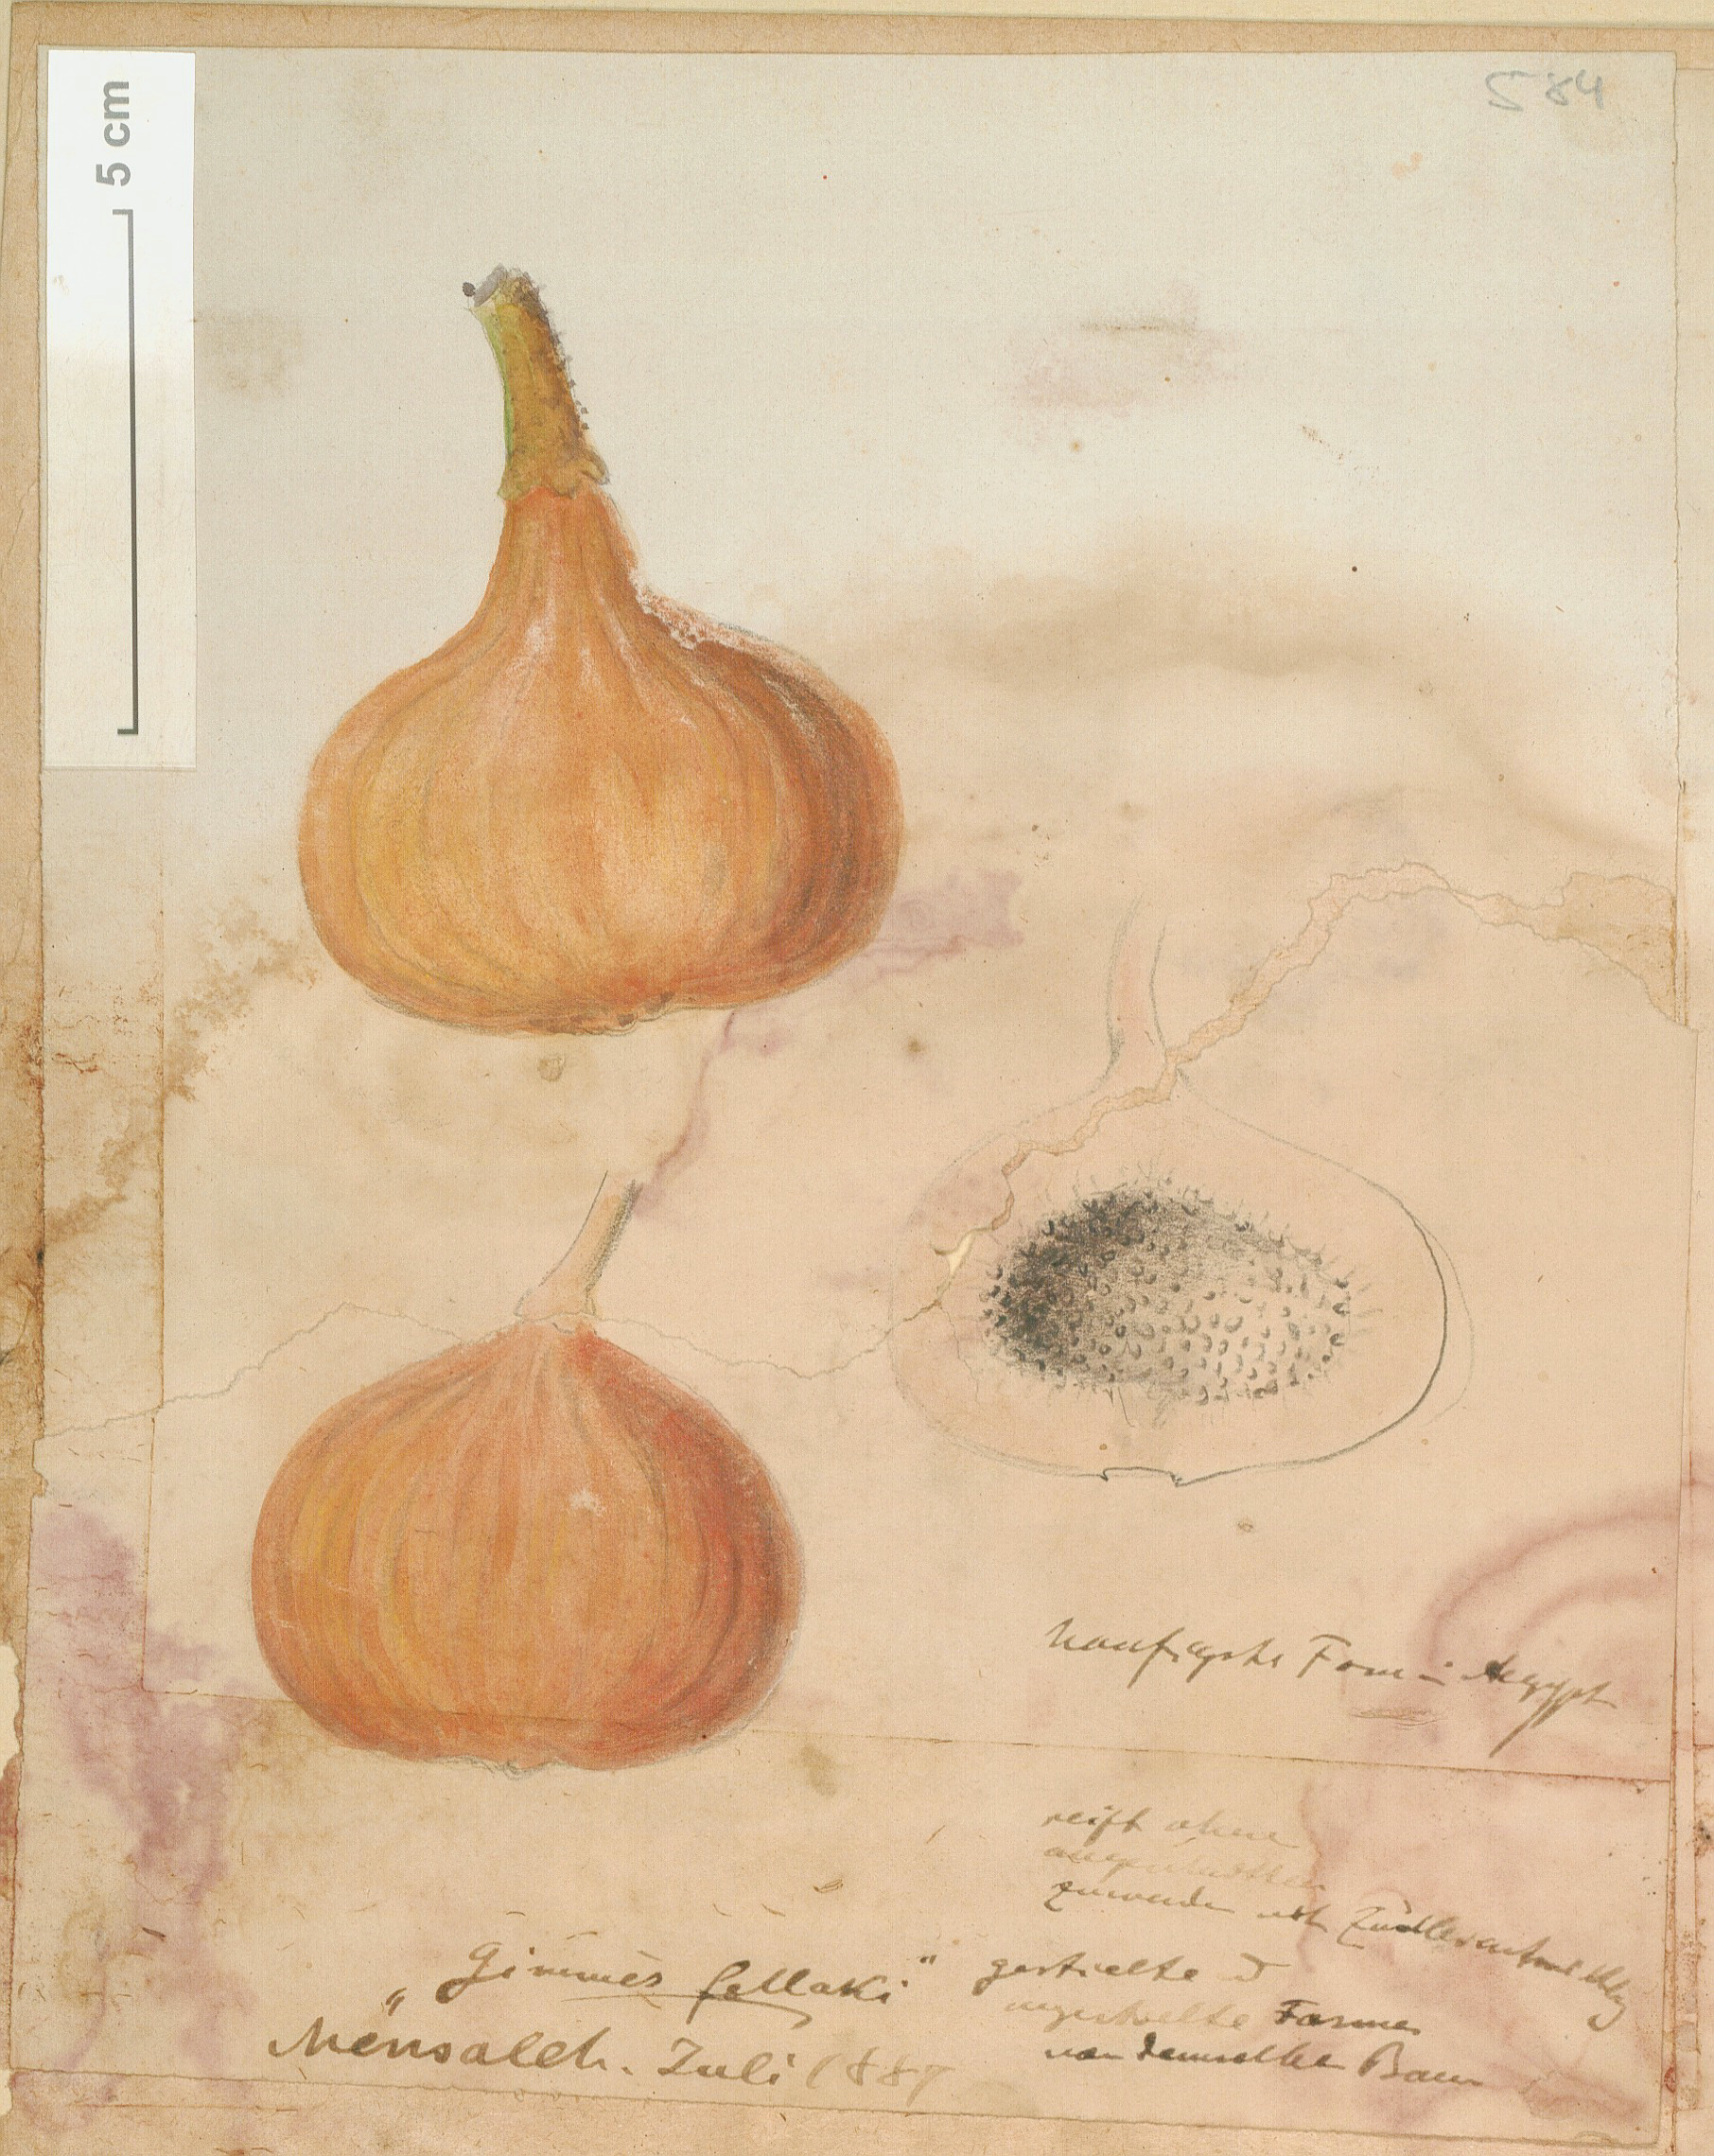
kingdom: Plantae
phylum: Tracheophyta
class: Magnoliopsida
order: Rosales
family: Moraceae
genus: Ficus
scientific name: Ficus sycomorus
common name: Sycomore
